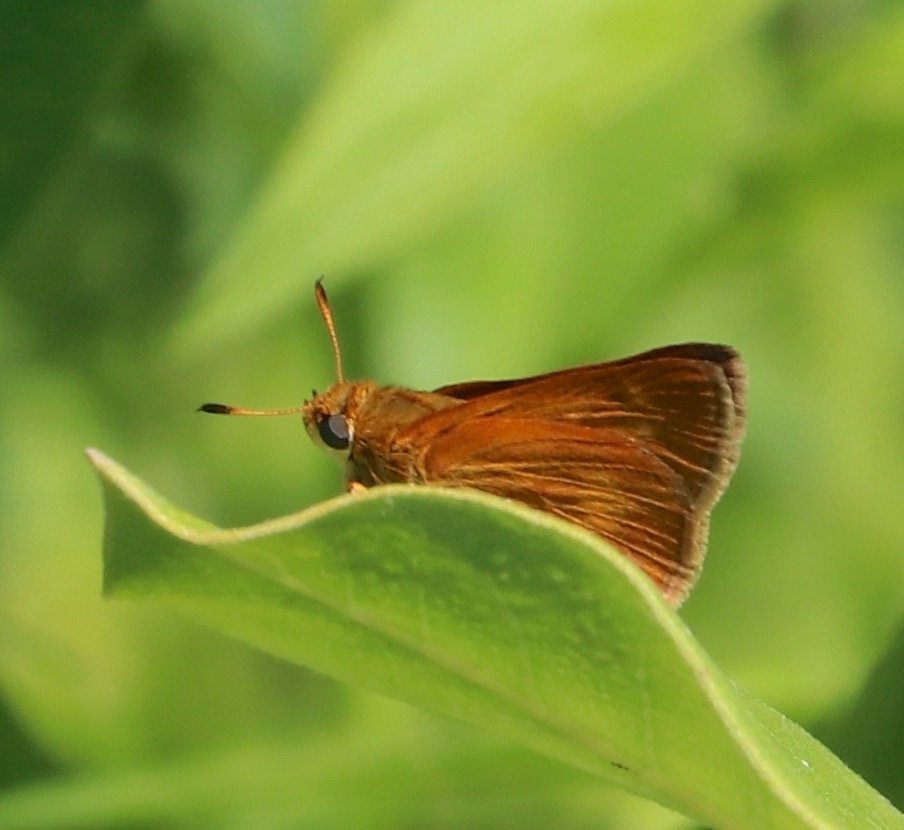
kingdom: Animalia
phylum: Arthropoda
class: Insecta
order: Lepidoptera
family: Hesperiidae
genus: Euphyes
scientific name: Euphyes conspicua
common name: Black Dash
